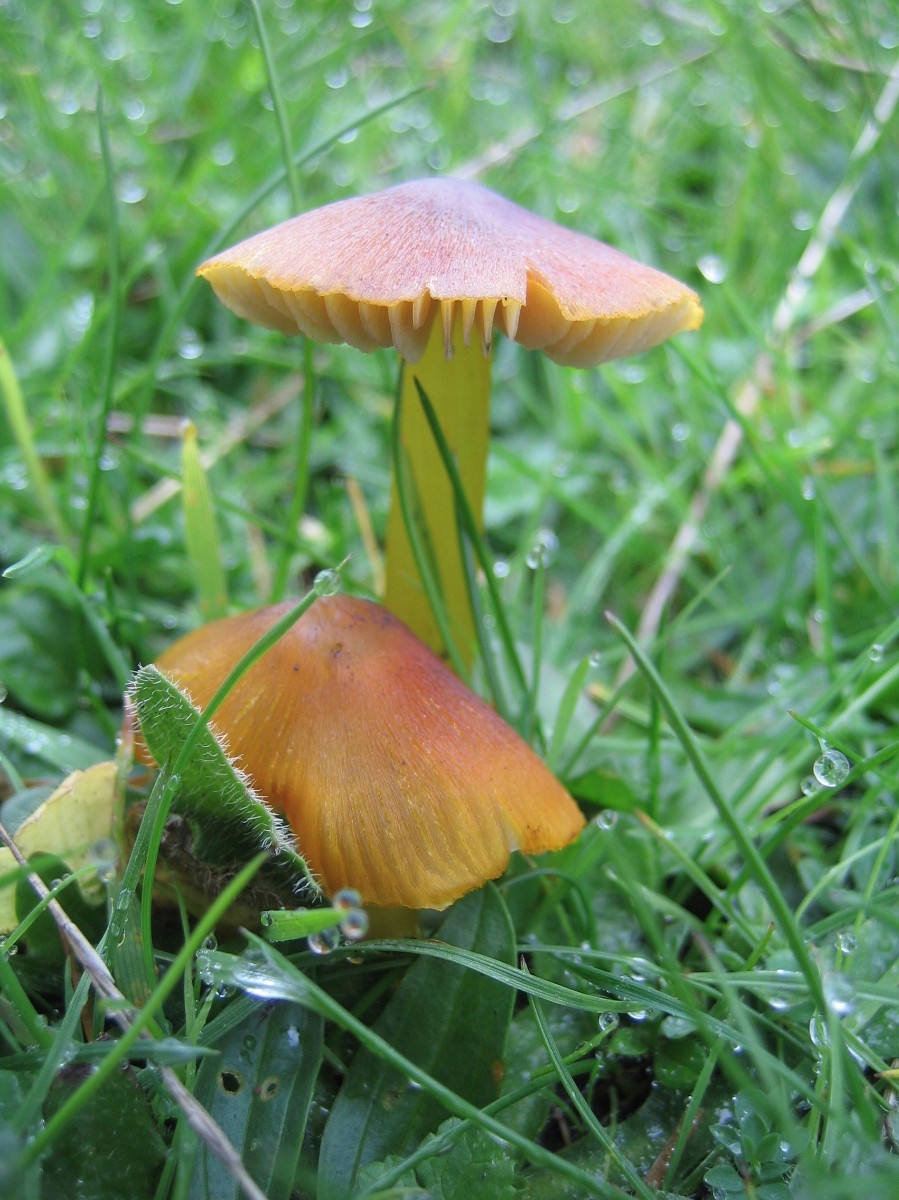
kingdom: Fungi
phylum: Basidiomycota
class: Agaricomycetes
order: Agaricales
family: Hygrophoraceae
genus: Hygrocybe
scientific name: Hygrocybe conica
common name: kegle-vokshat
